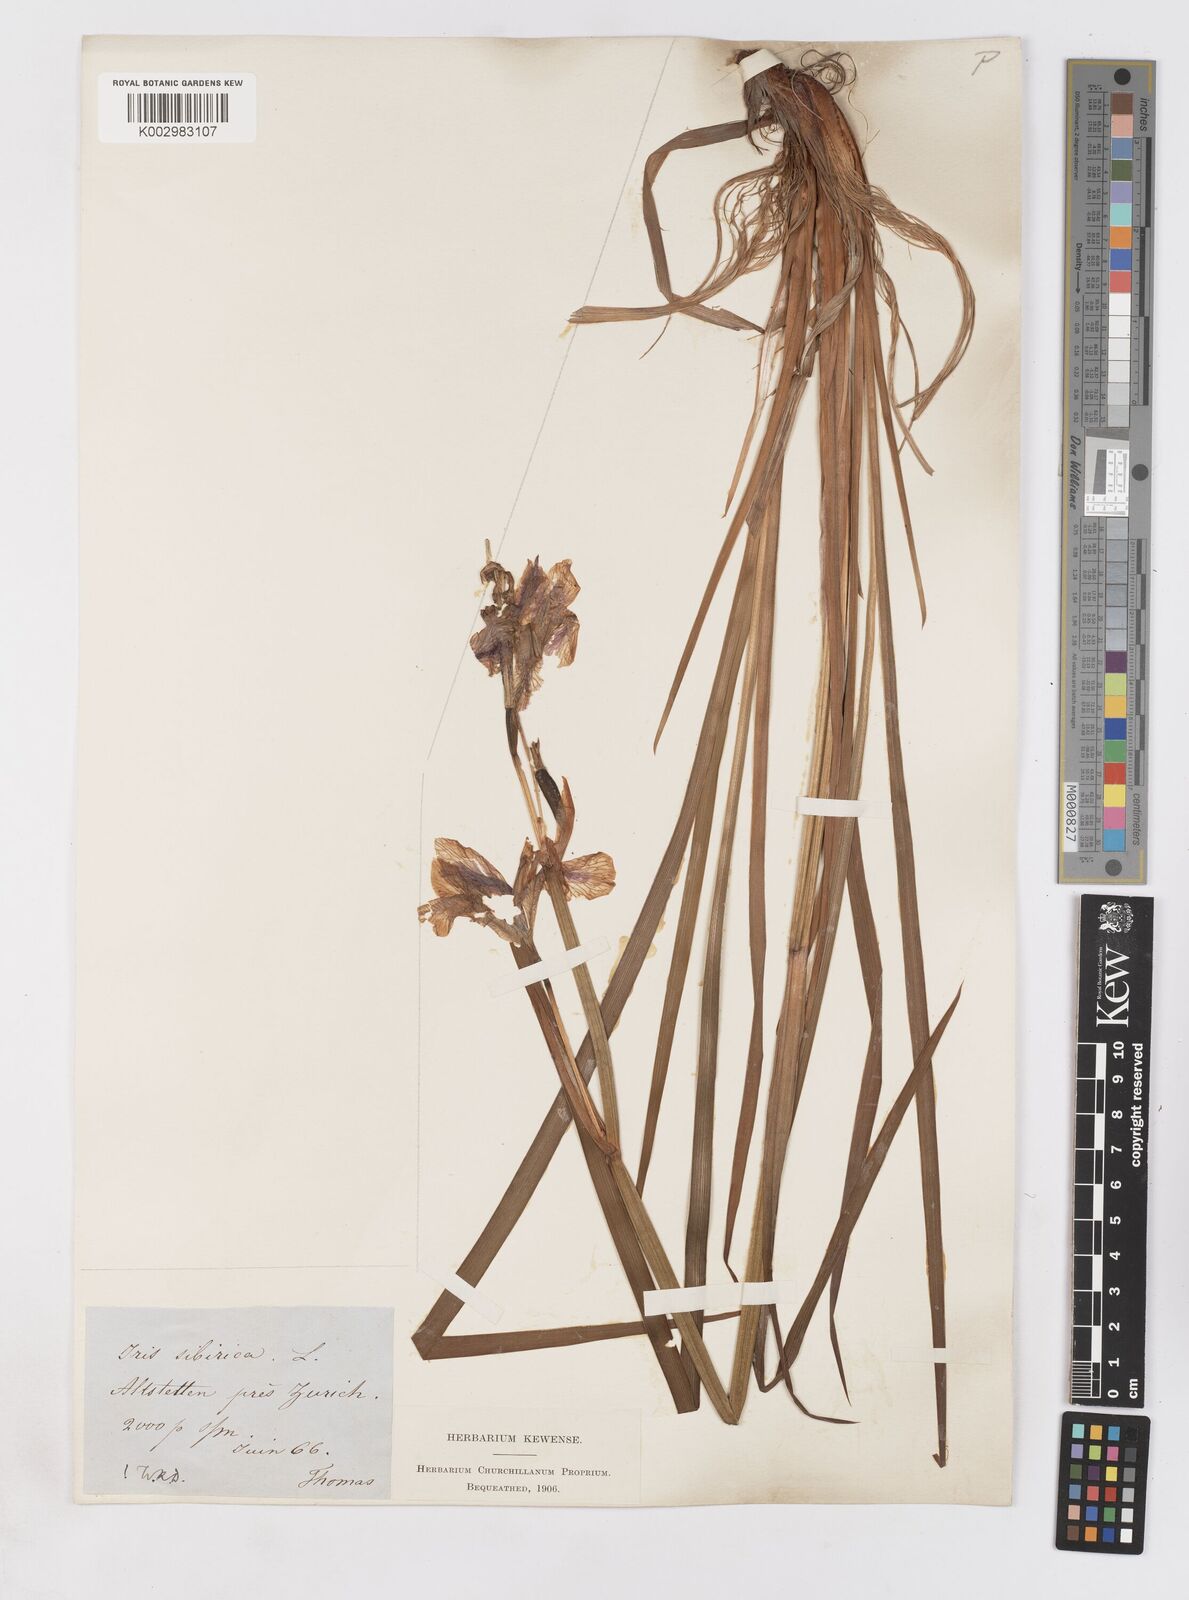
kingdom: Plantae
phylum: Tracheophyta
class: Liliopsida
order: Asparagales
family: Iridaceae
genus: Iris
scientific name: Iris sibirica
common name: Siberian iris
